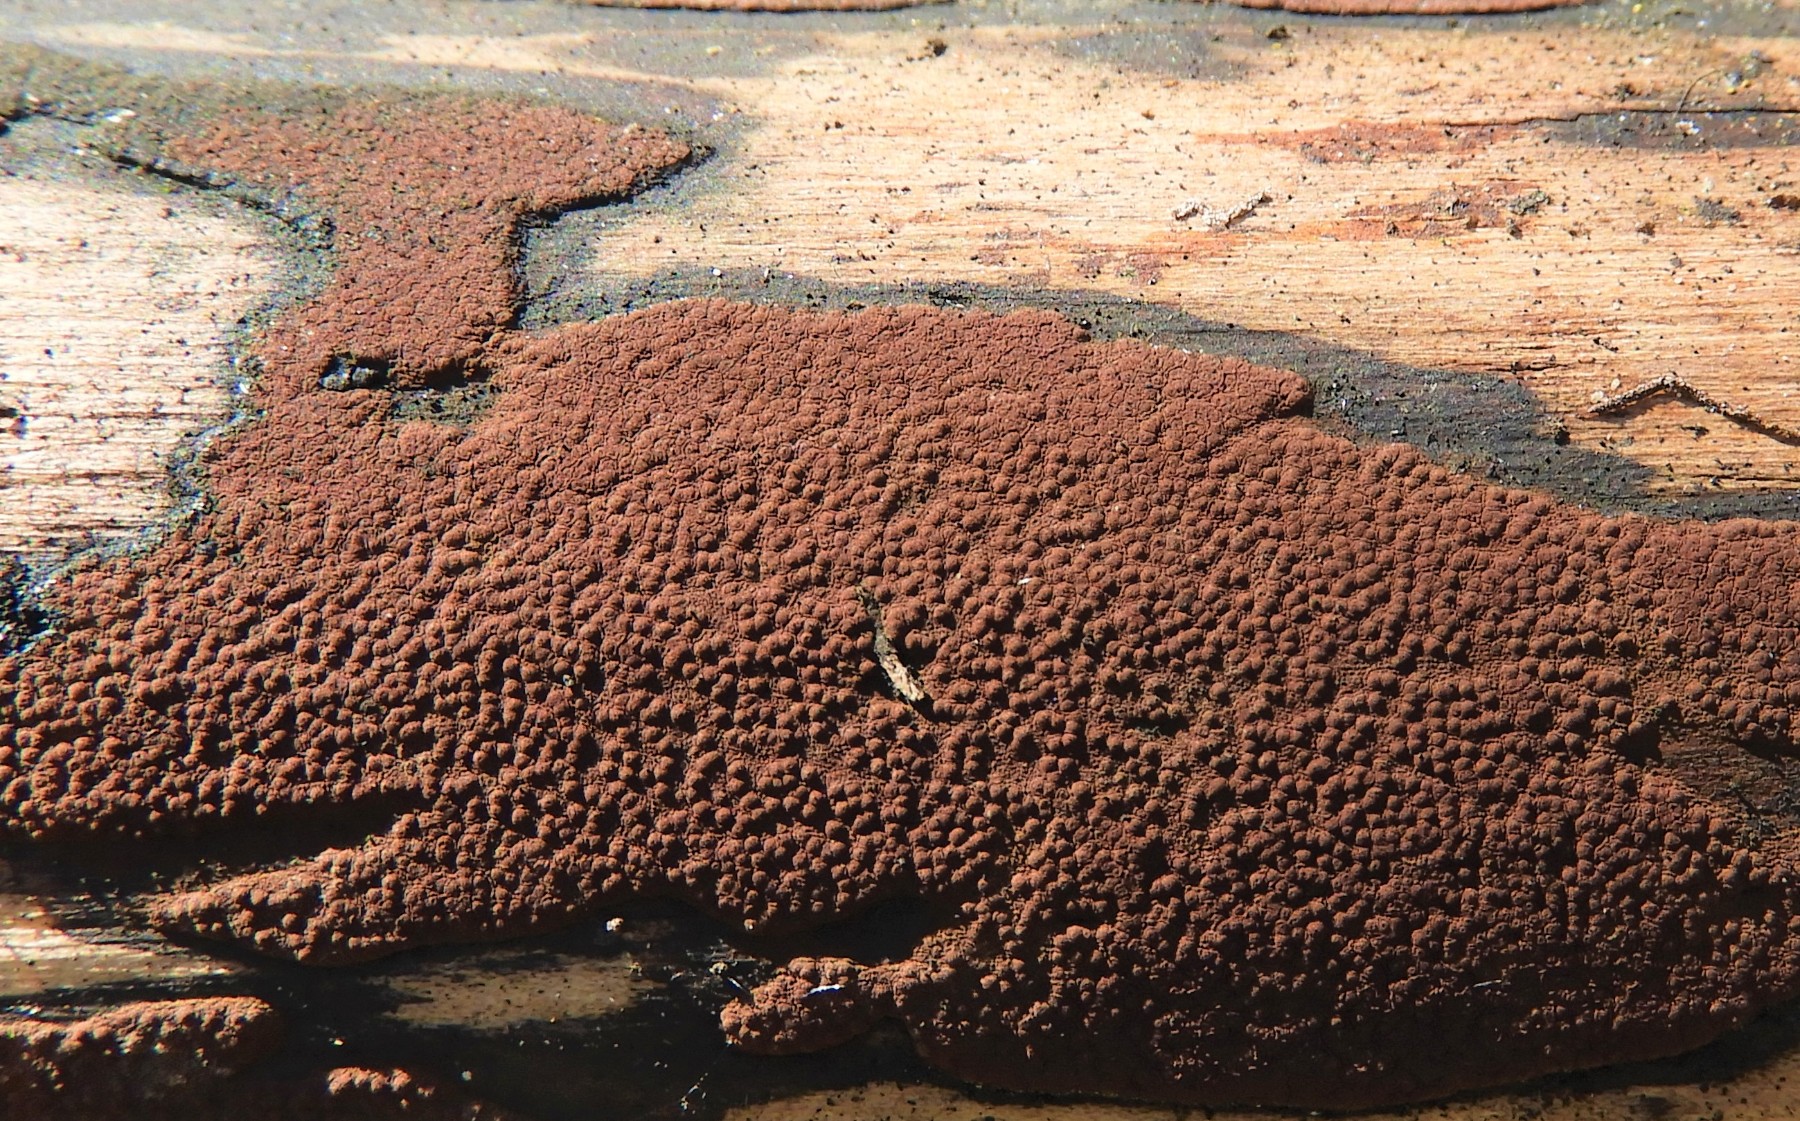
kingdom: Fungi
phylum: Ascomycota
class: Sordariomycetes
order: Xylariales
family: Hypoxylaceae
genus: Hypoxylon
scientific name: Hypoxylon petriniae
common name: nedsænket kulbær
